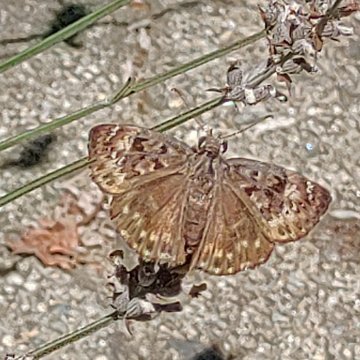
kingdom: Animalia
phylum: Arthropoda
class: Insecta
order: Lepidoptera
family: Hesperiidae
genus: Gesta
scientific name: Gesta
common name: Horace's Duskywing
